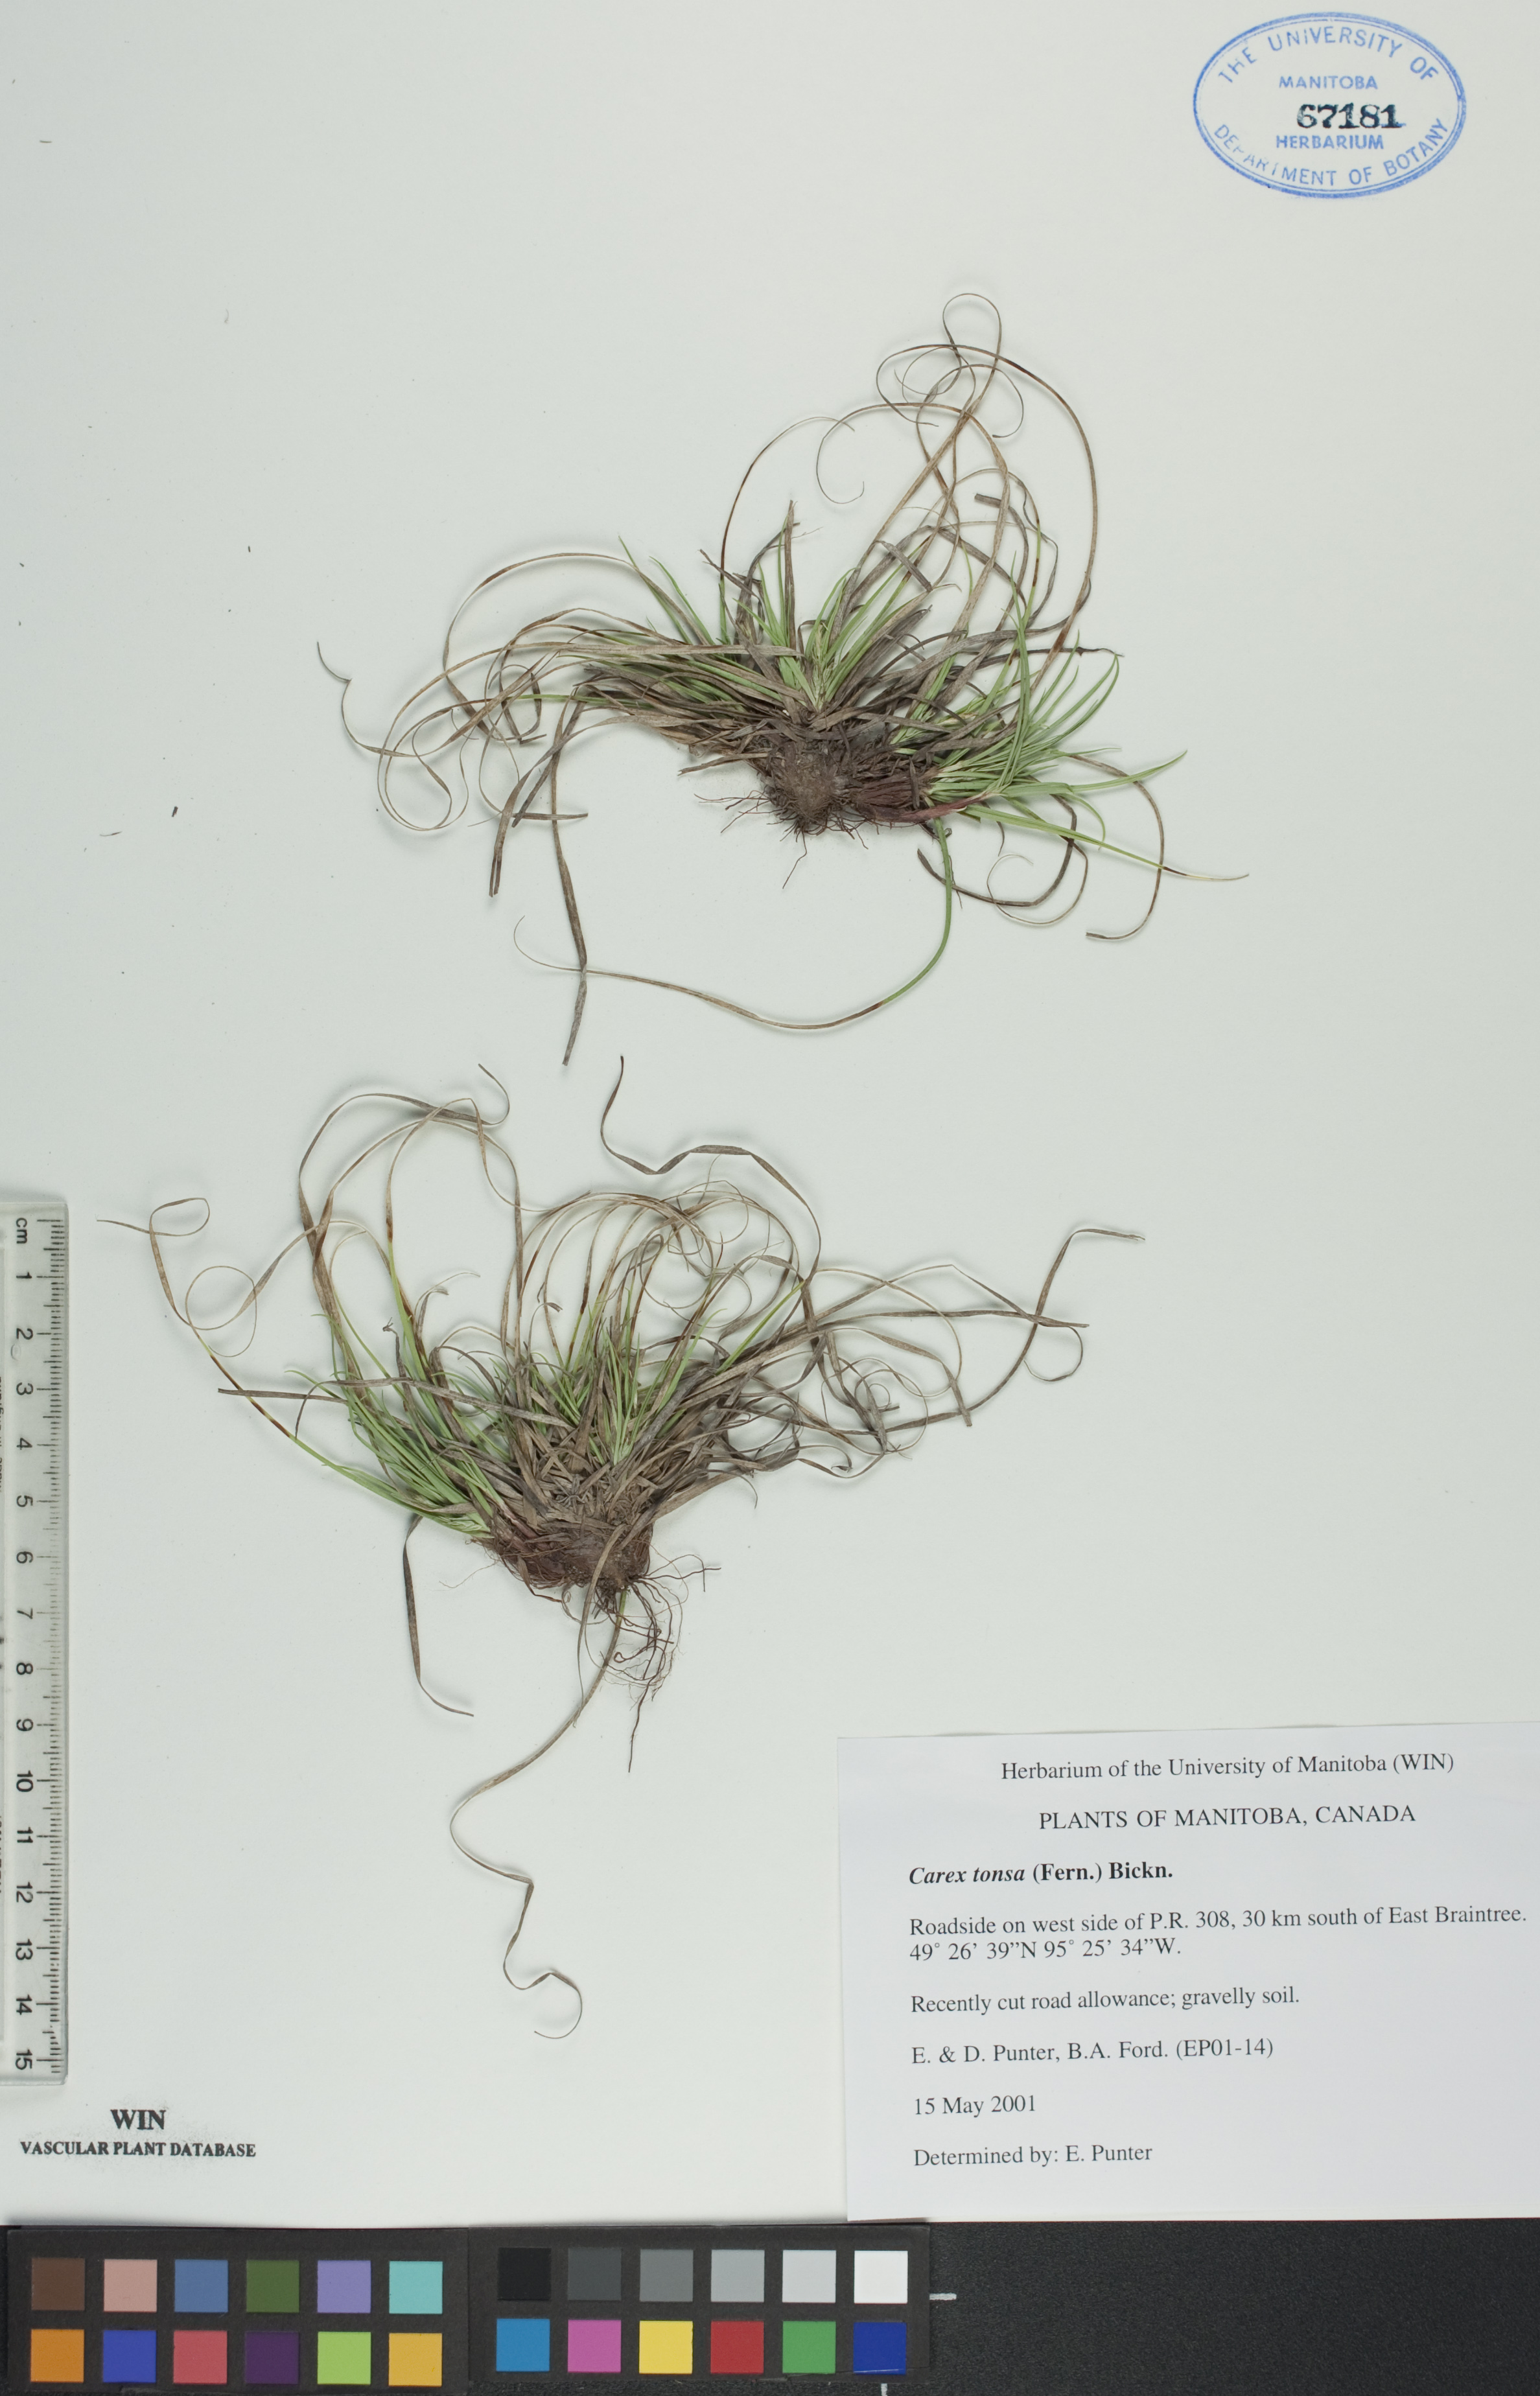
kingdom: Plantae
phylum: Tracheophyta
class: Liliopsida
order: Poales
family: Cyperaceae
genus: Carex
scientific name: Carex tonsa
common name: Bald sedge
